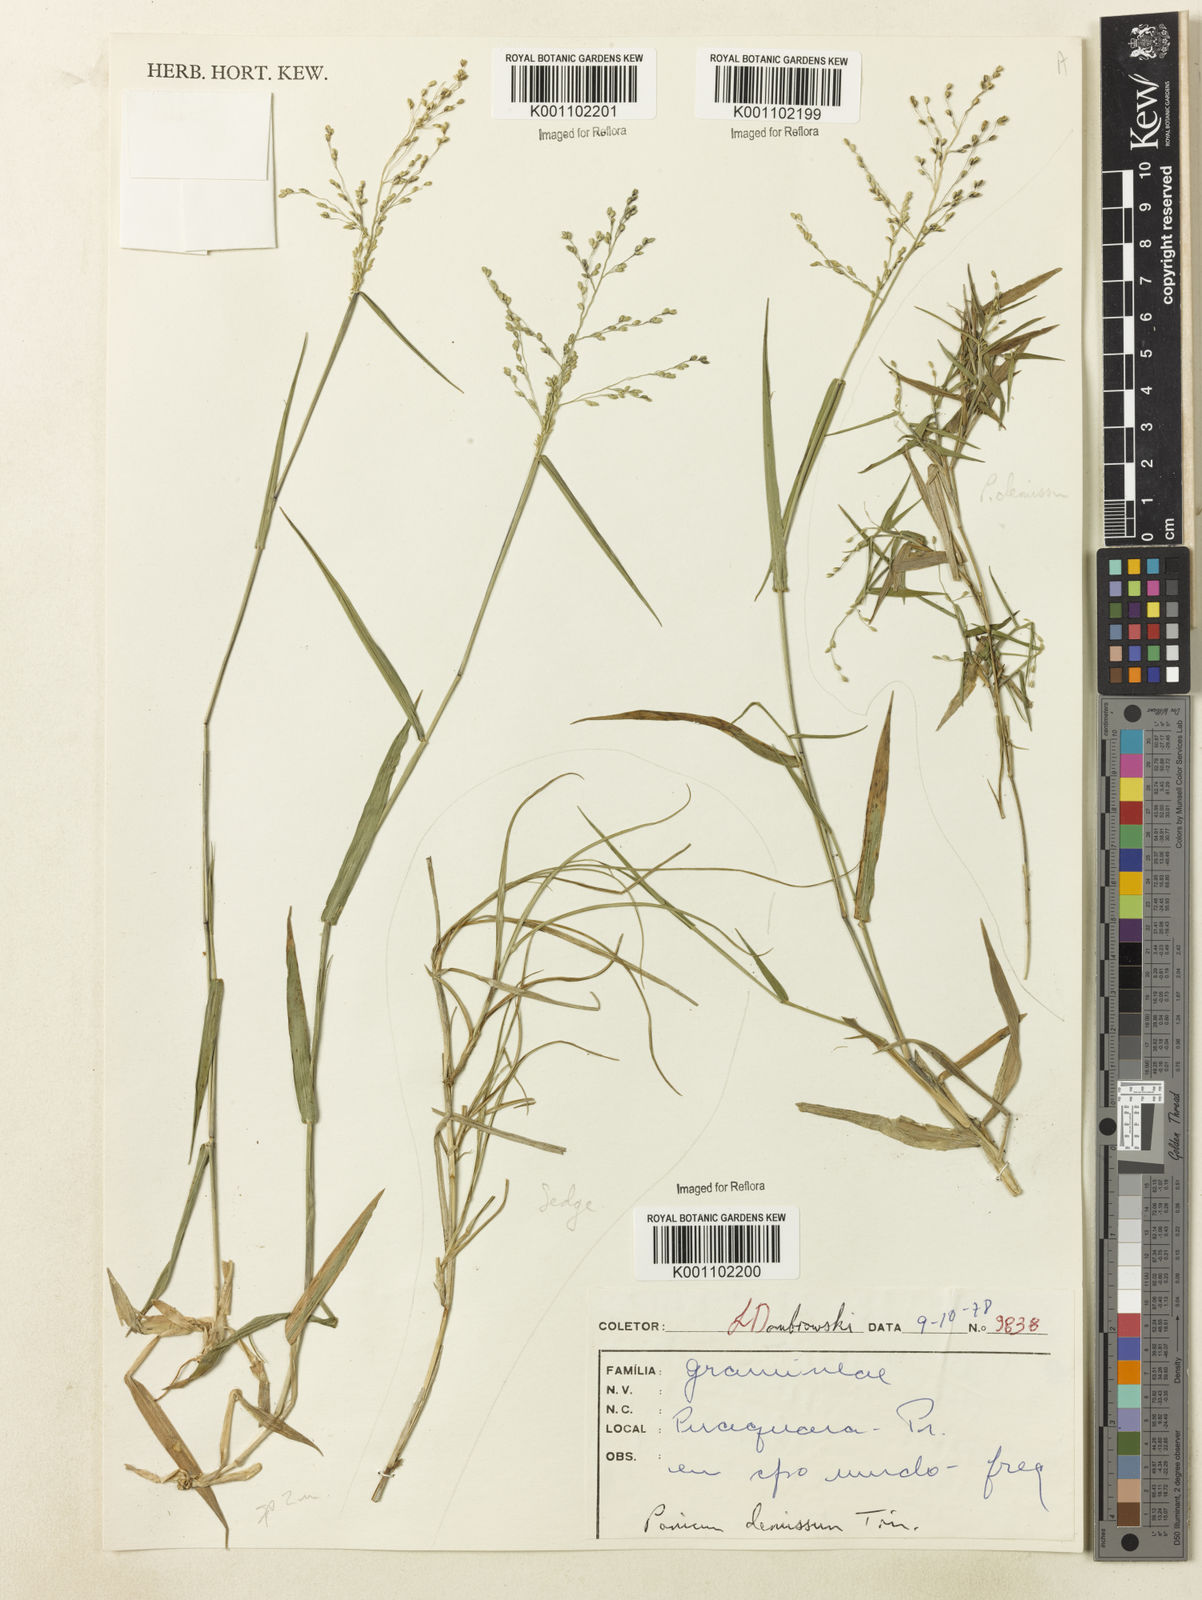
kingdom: Plantae
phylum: Tracheophyta
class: Liliopsida
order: Poales
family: Poaceae
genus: Dichanthelium
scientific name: Dichanthelium sabulorum
